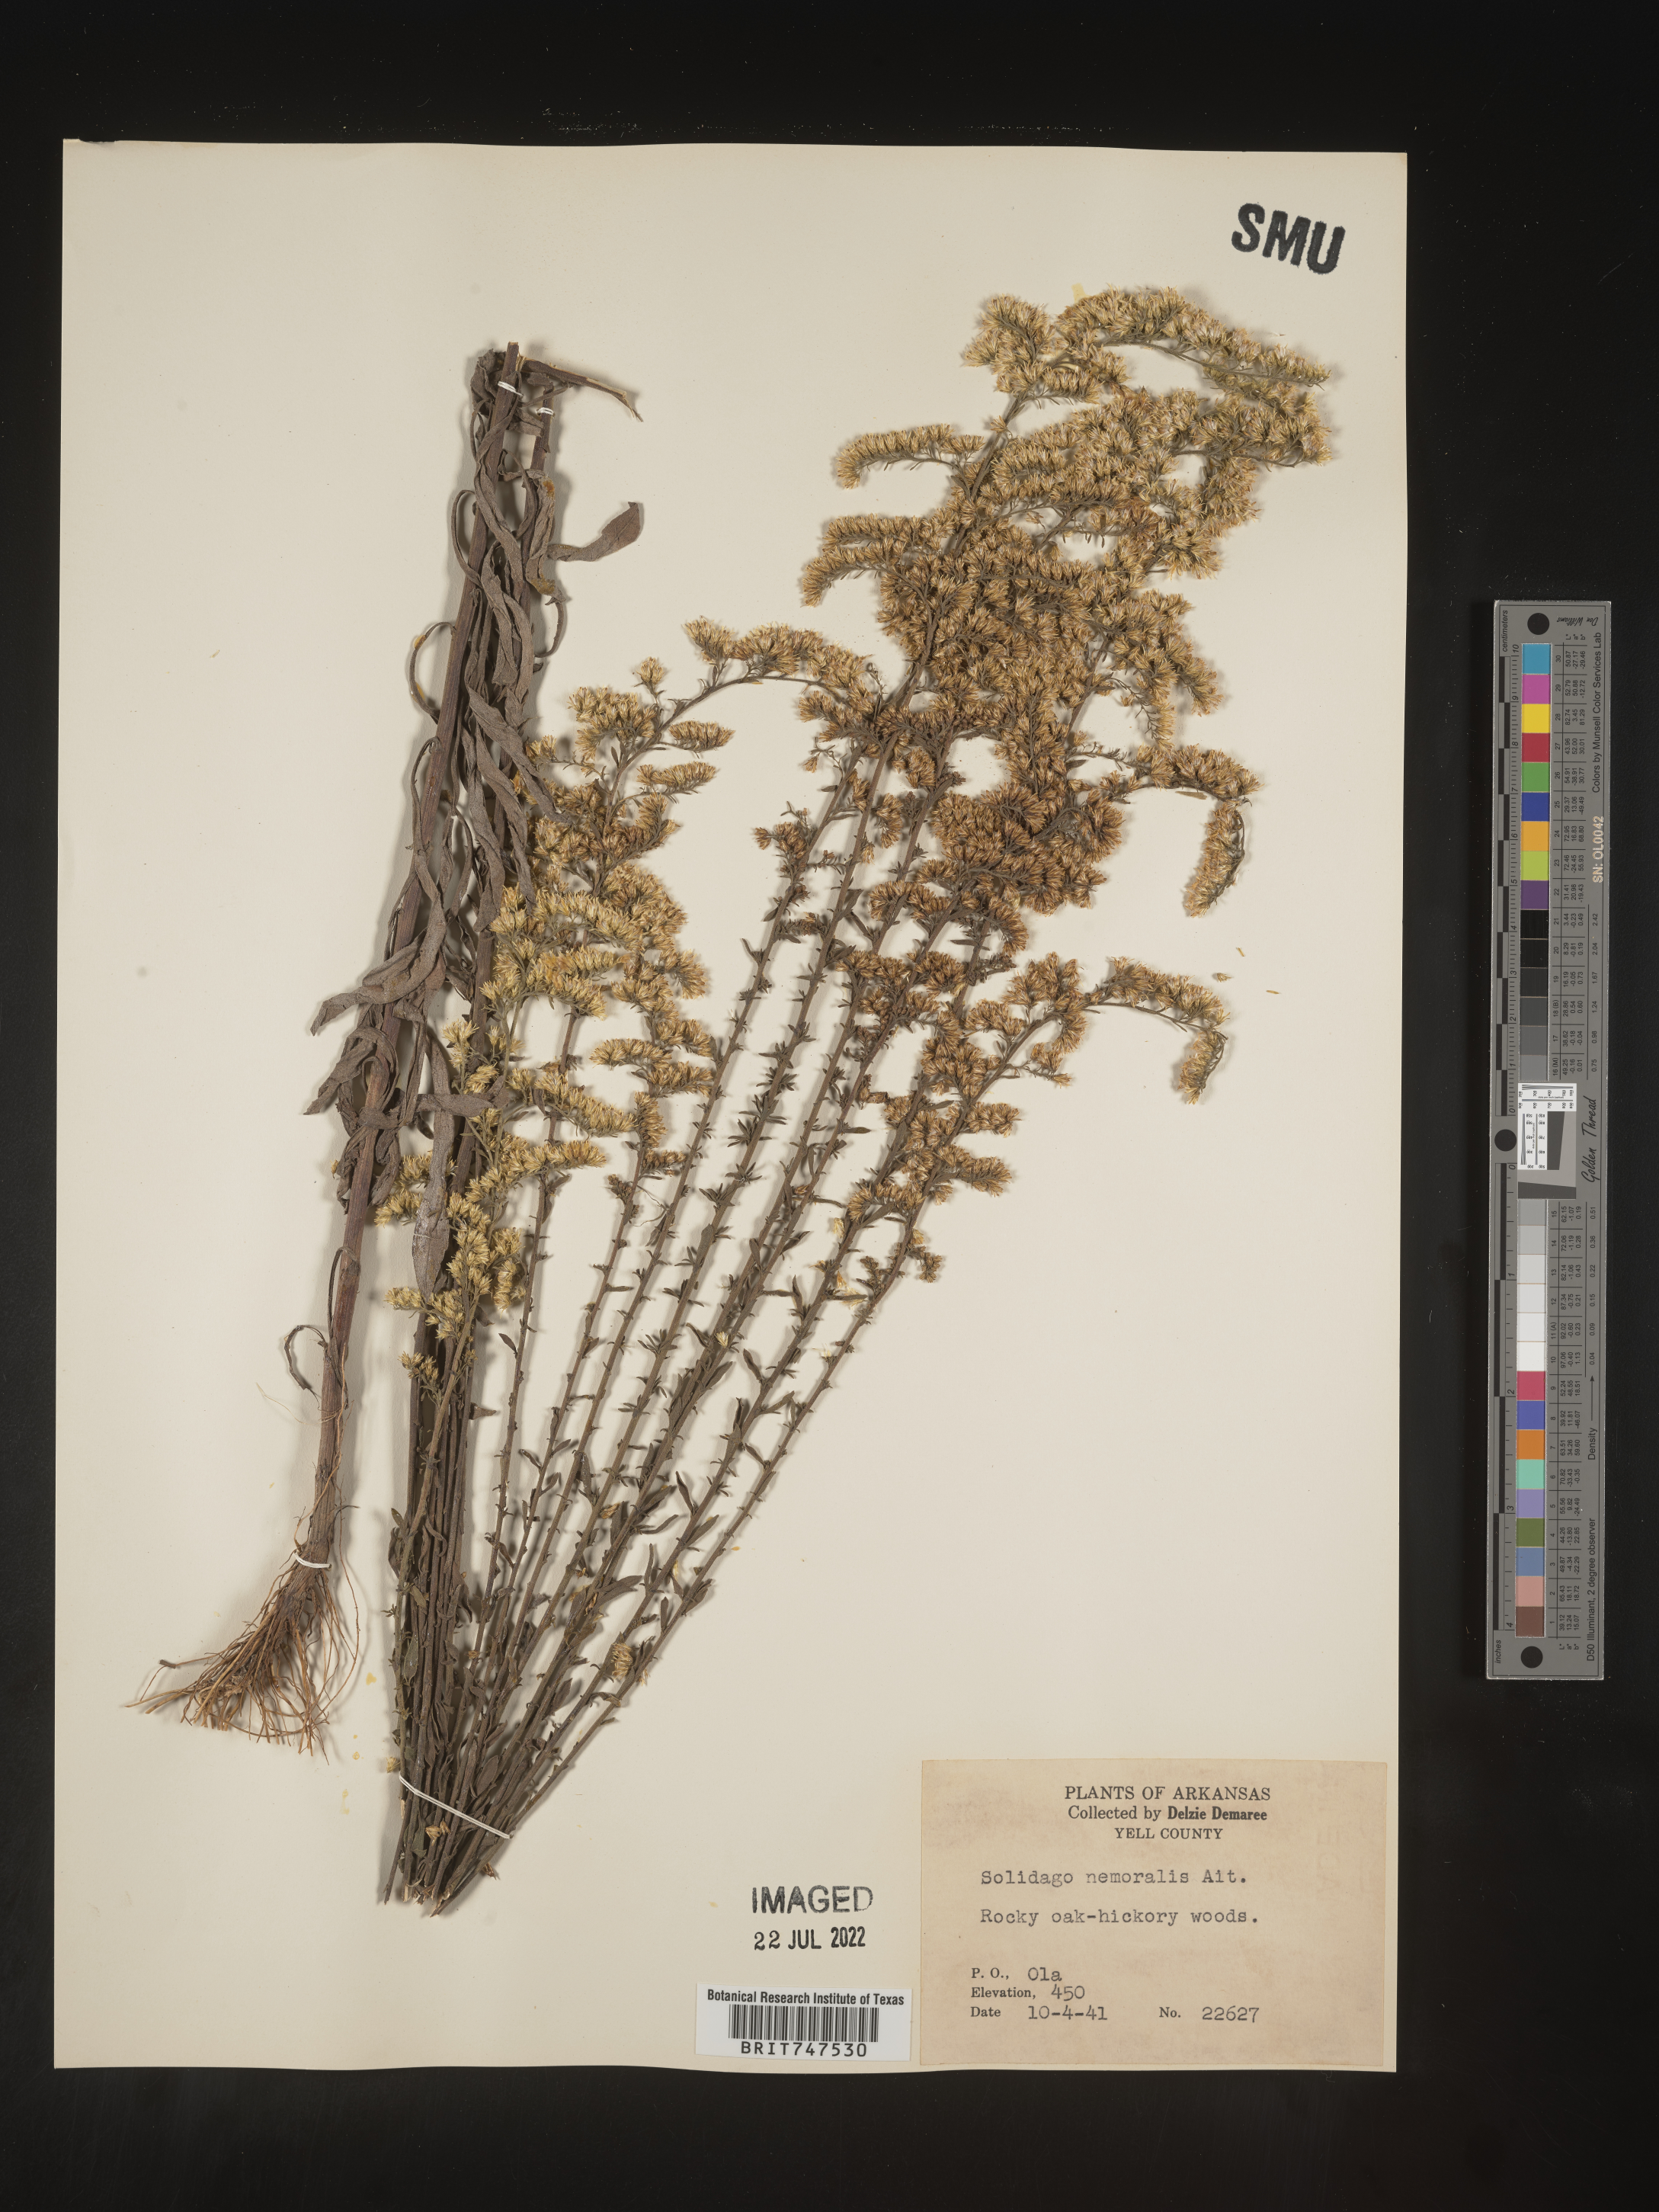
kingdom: Plantae
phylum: Tracheophyta
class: Magnoliopsida
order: Asterales
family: Asteraceae
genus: Solidago
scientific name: Solidago nemoralis
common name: Grey goldenrod
